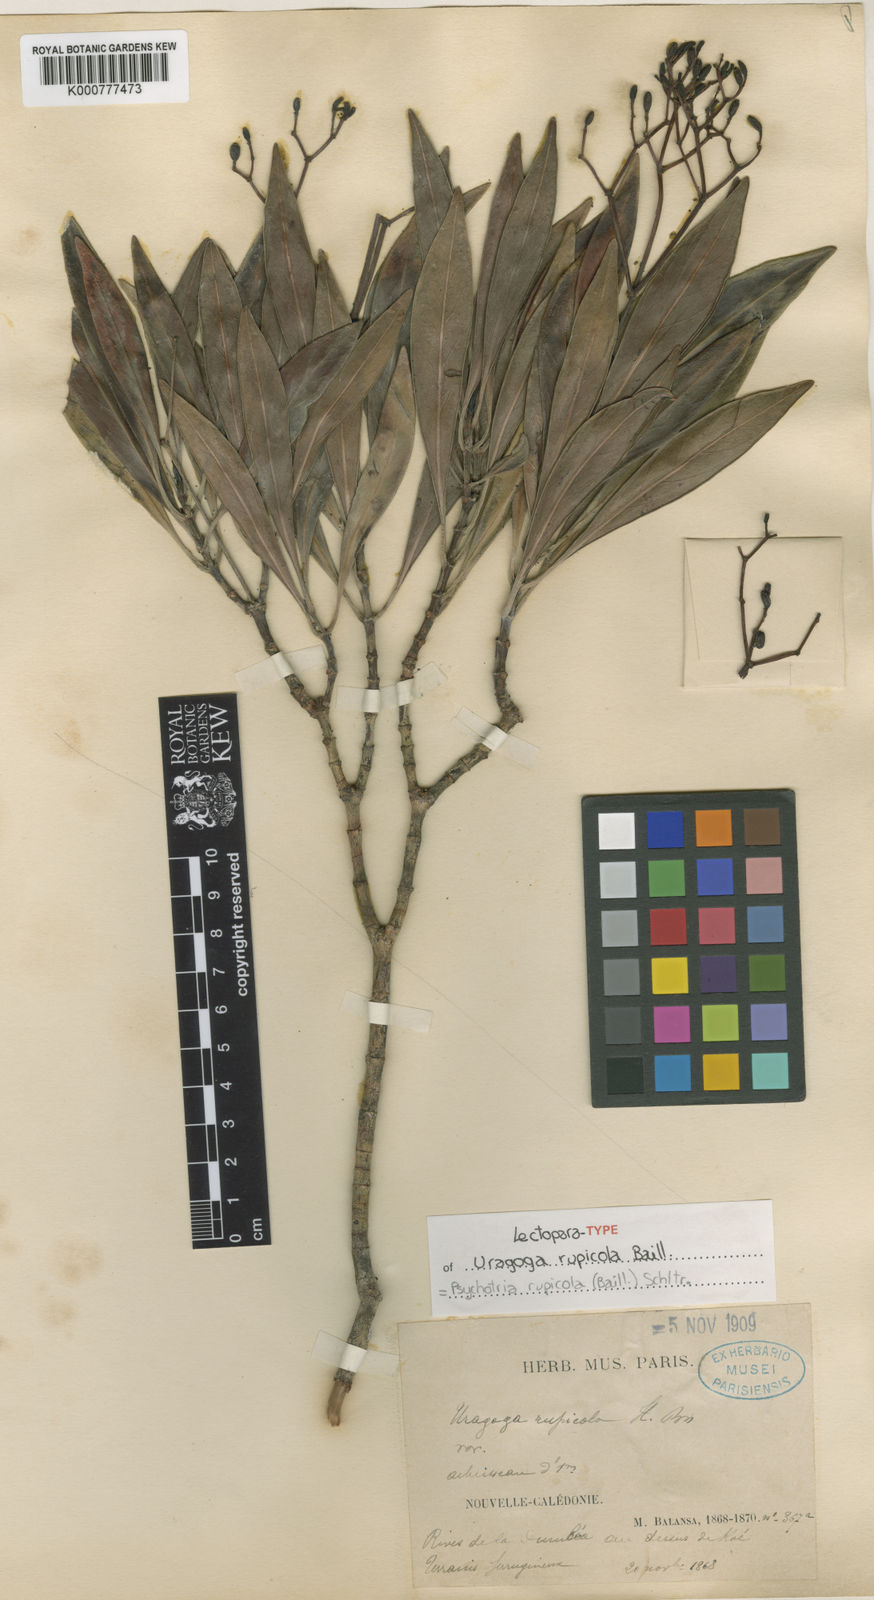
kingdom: Plantae
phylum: Tracheophyta
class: Magnoliopsida
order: Gentianales
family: Rubiaceae
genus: Psychotria
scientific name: Psychotria rupicola
